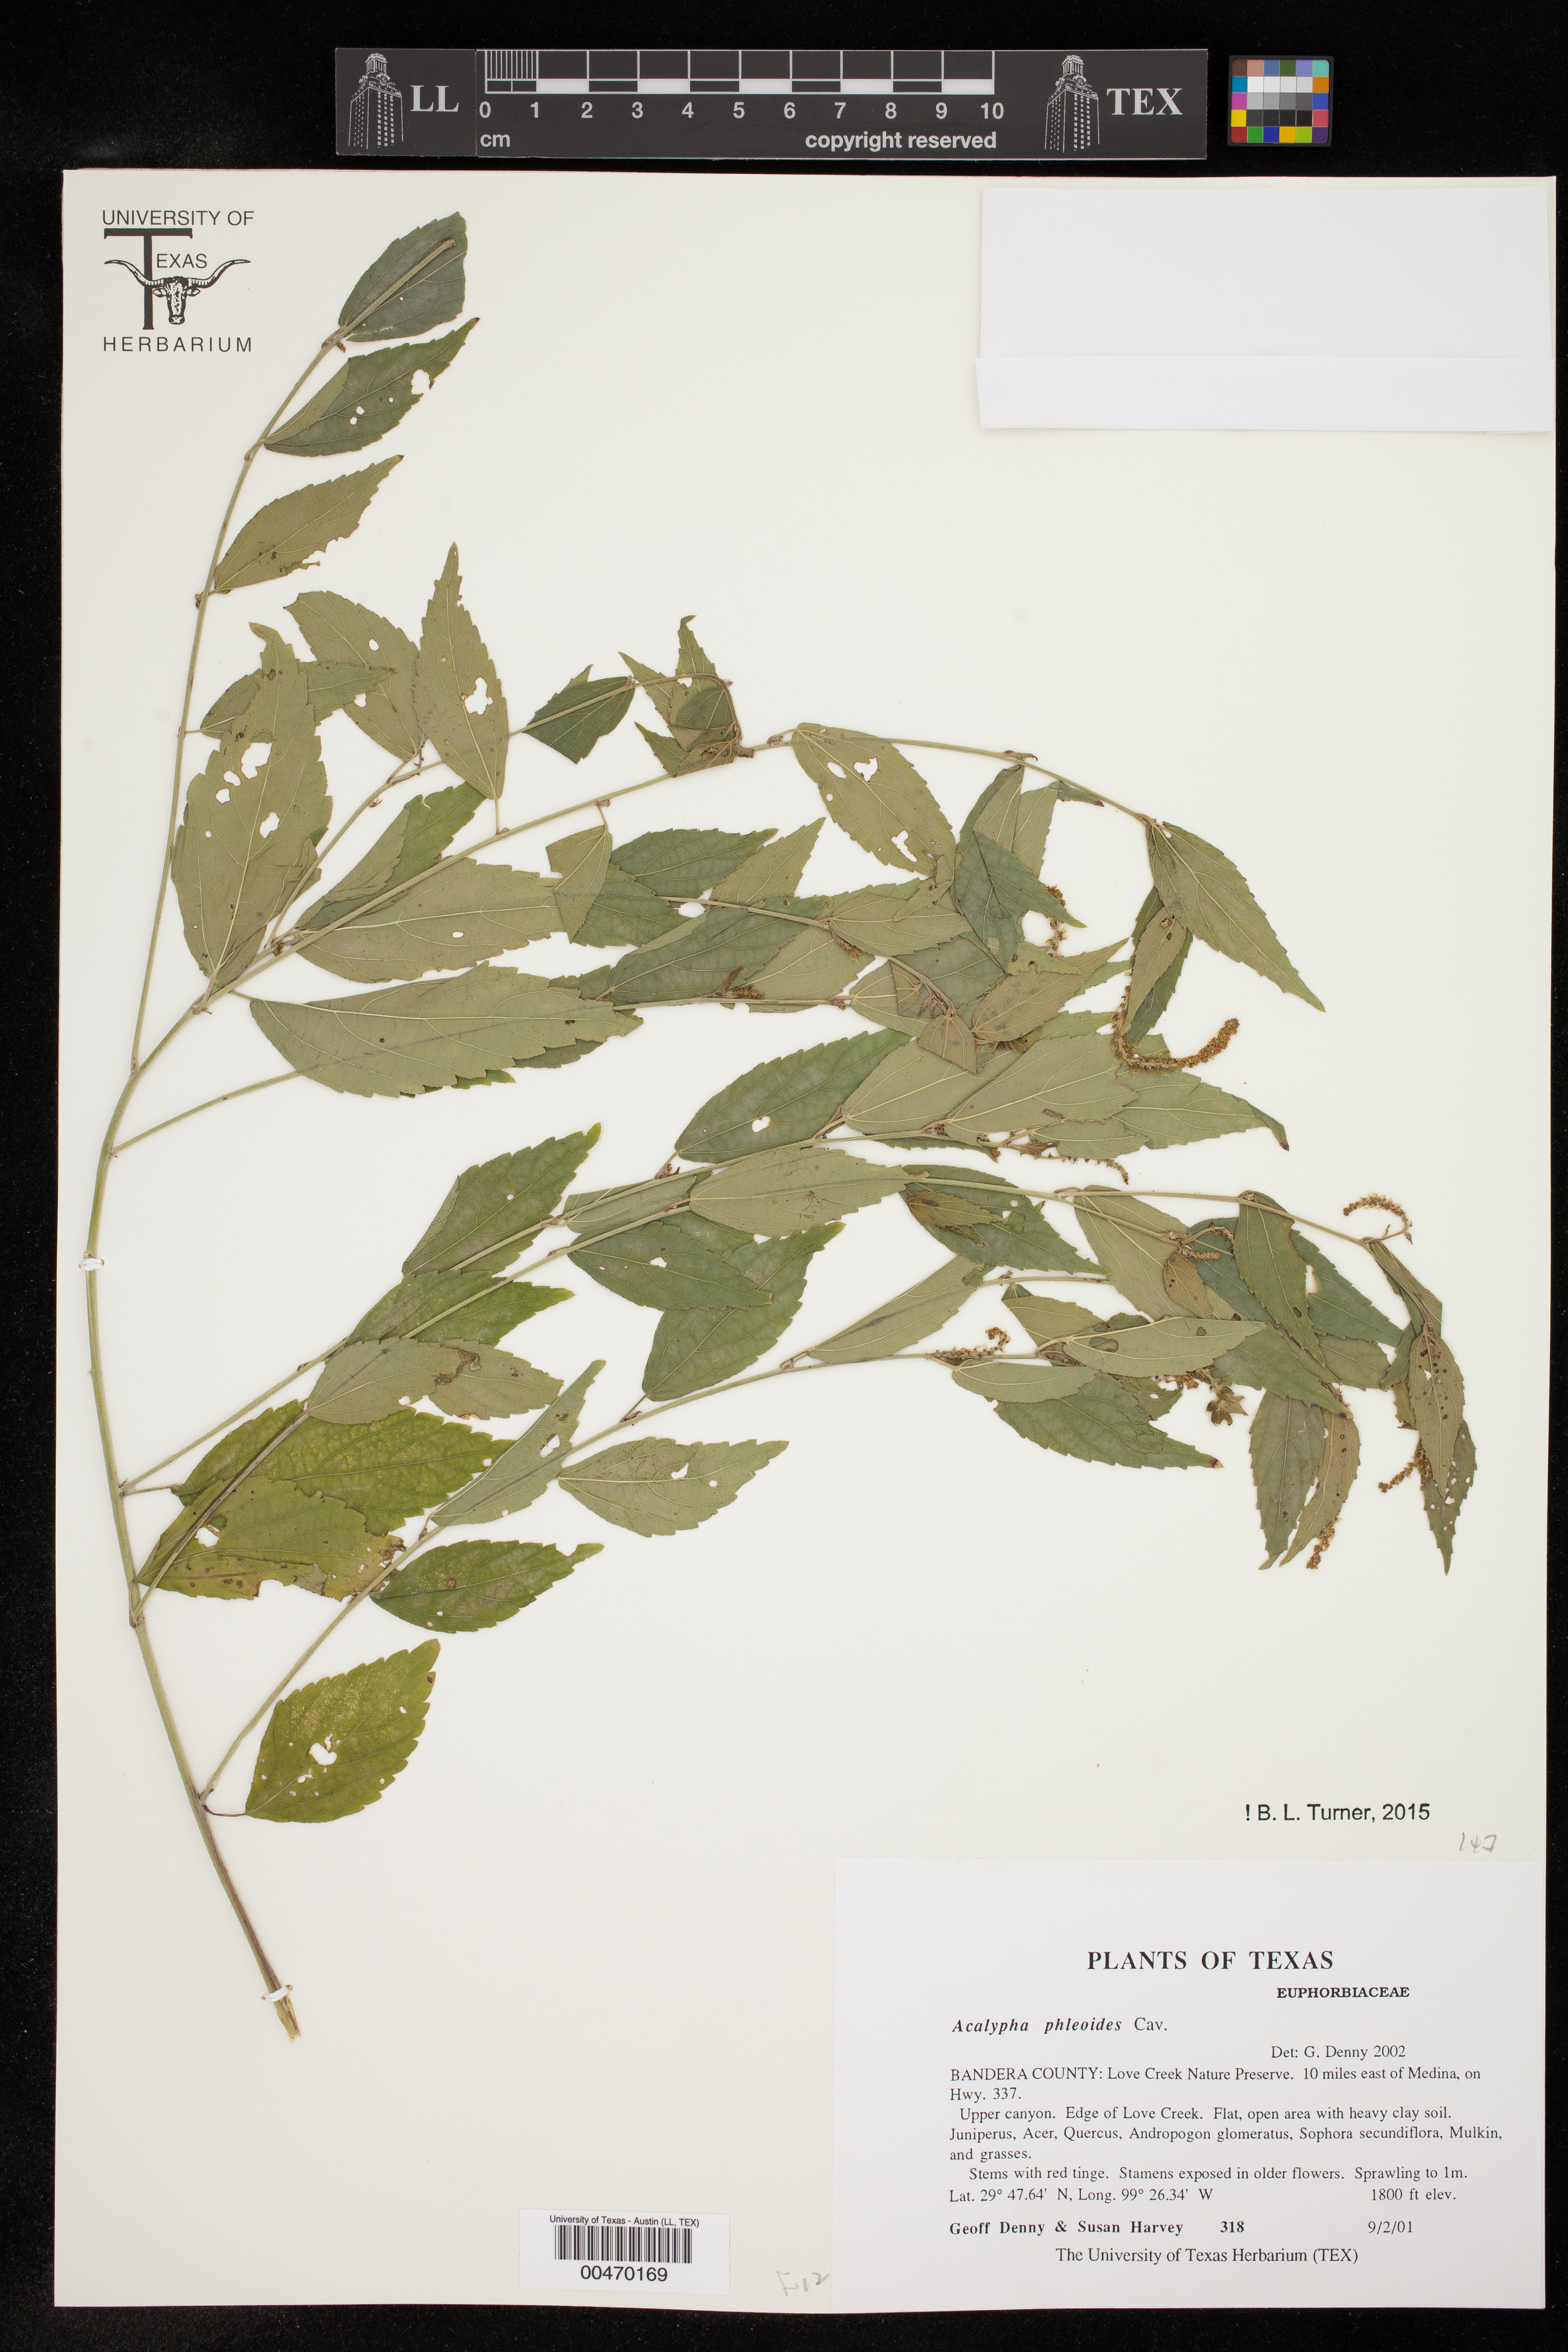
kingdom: Plantae
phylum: Tracheophyta
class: Magnoliopsida
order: Malpighiales
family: Euphorbiaceae
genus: Acalypha
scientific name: Acalypha phleoides
